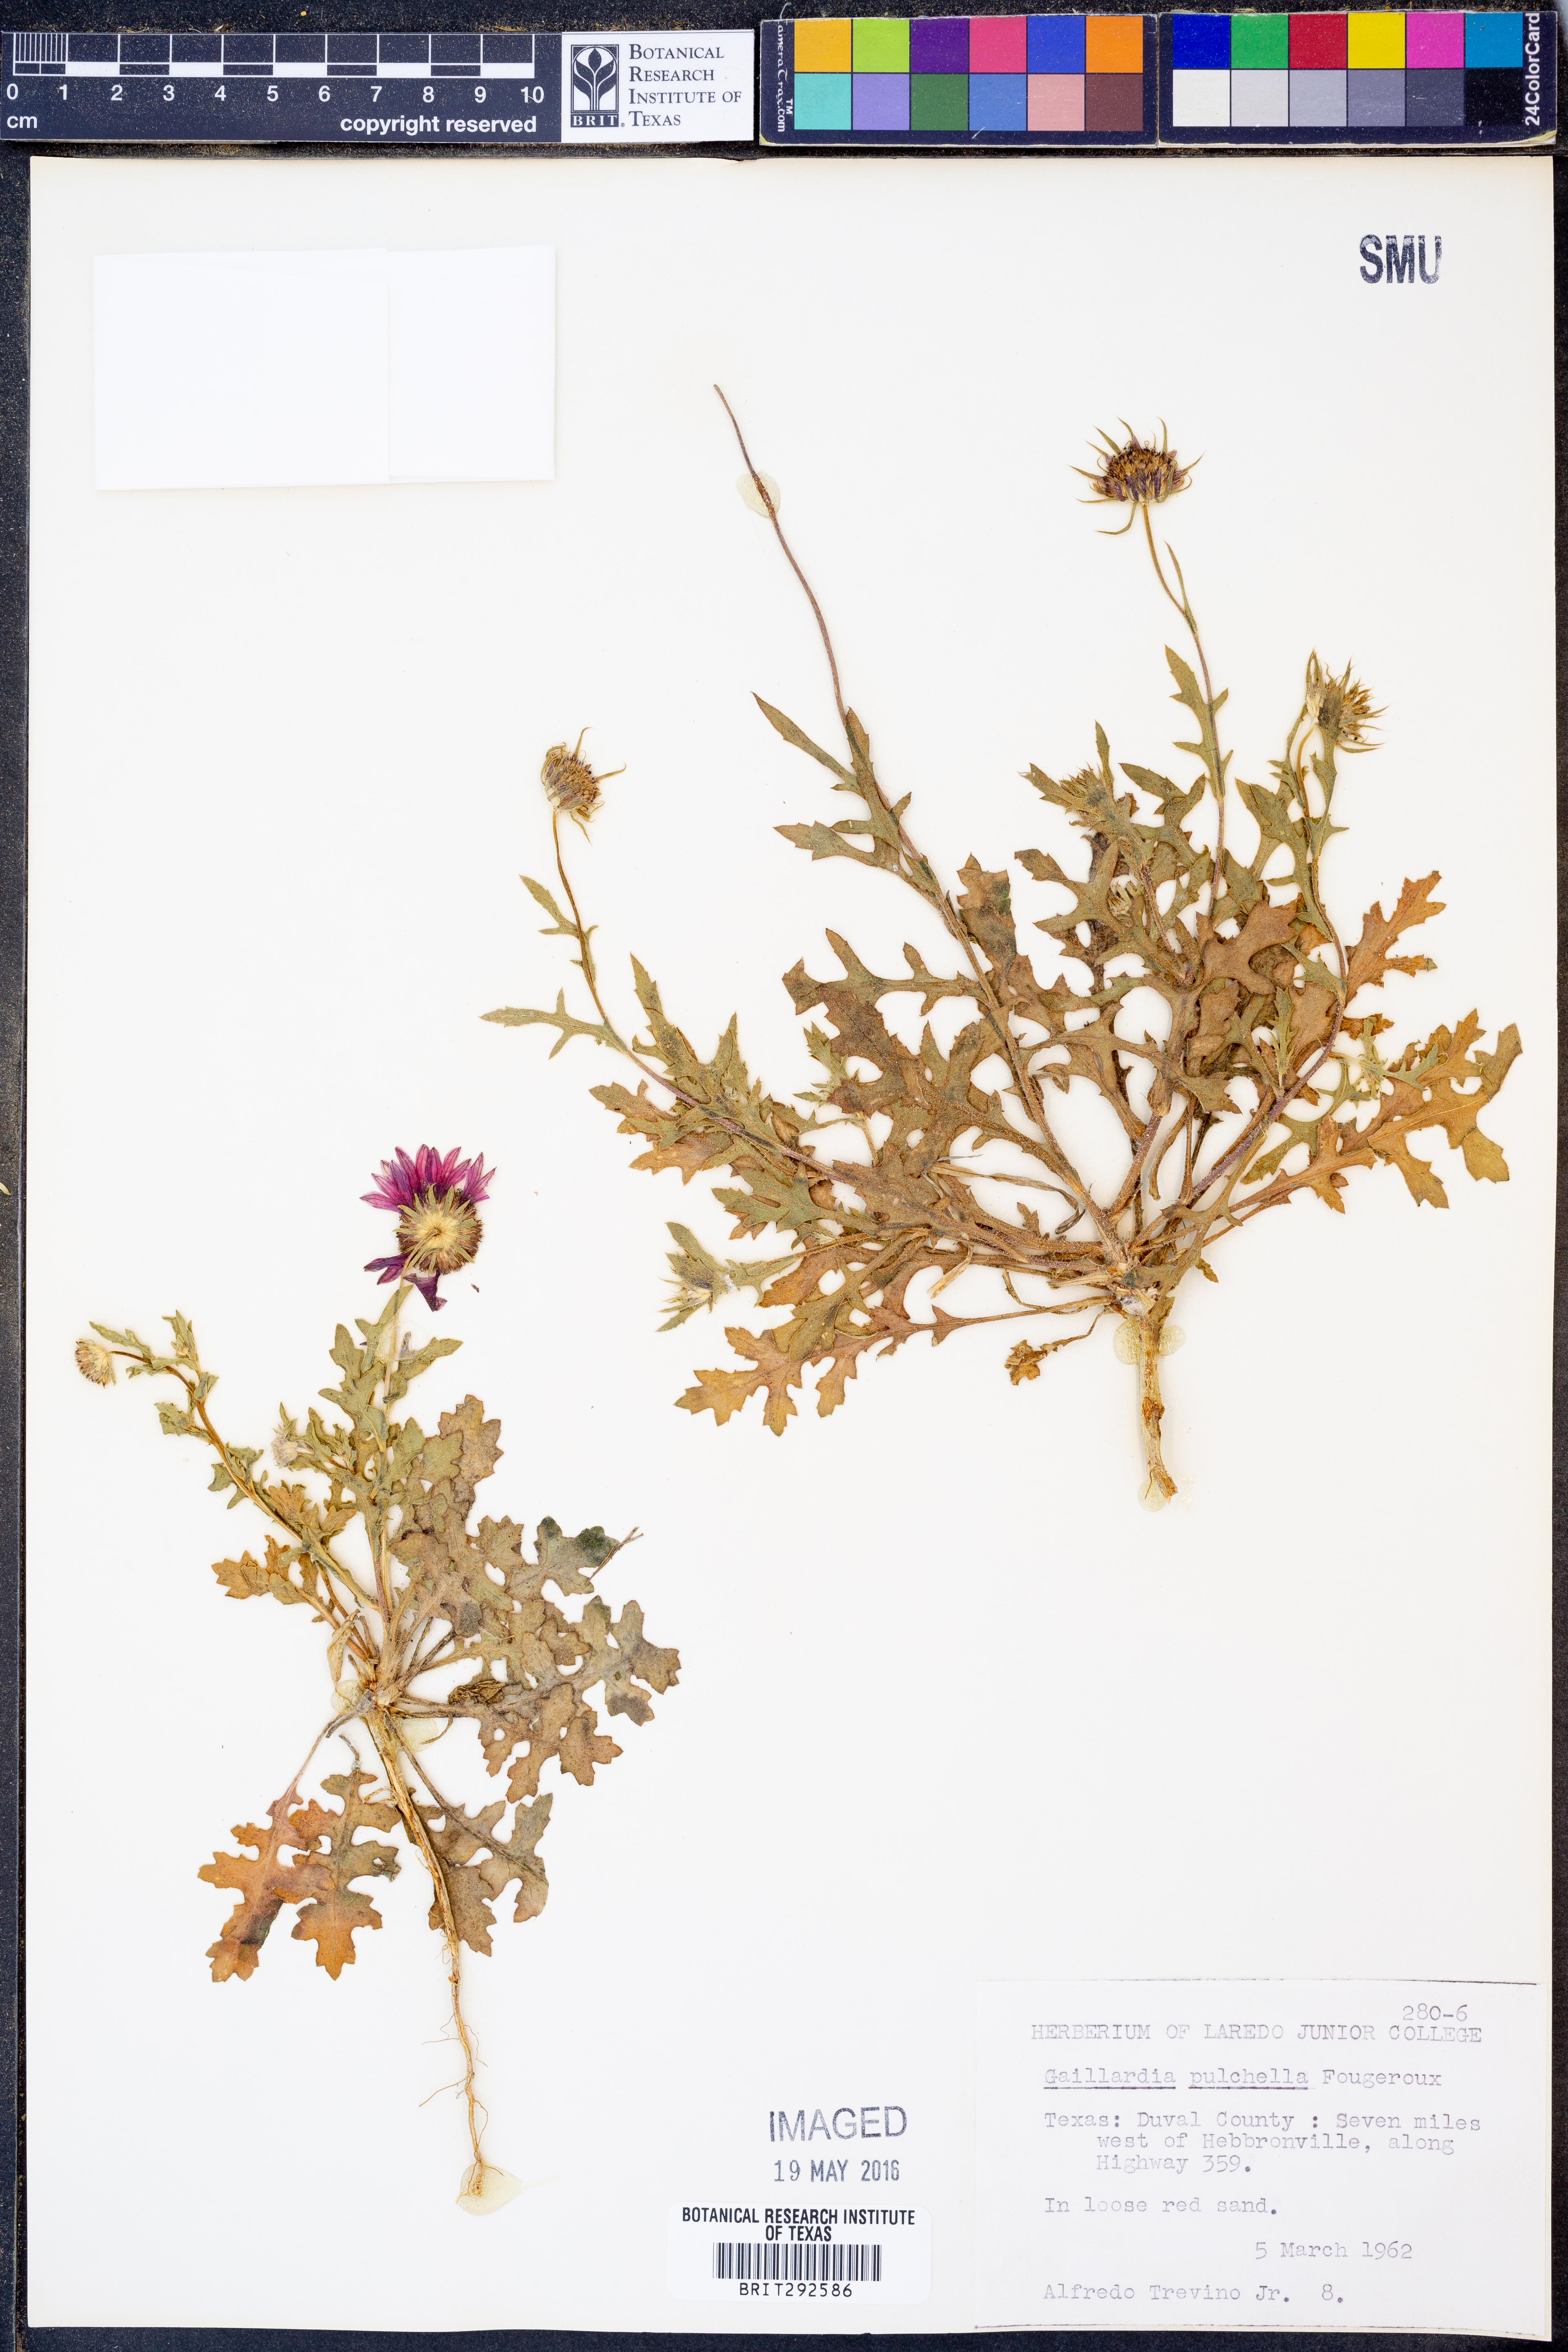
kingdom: Plantae
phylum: Tracheophyta
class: Magnoliopsida
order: Asterales
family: Asteraceae
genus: Gaillardia
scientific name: Gaillardia pulchella
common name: Firewheel
